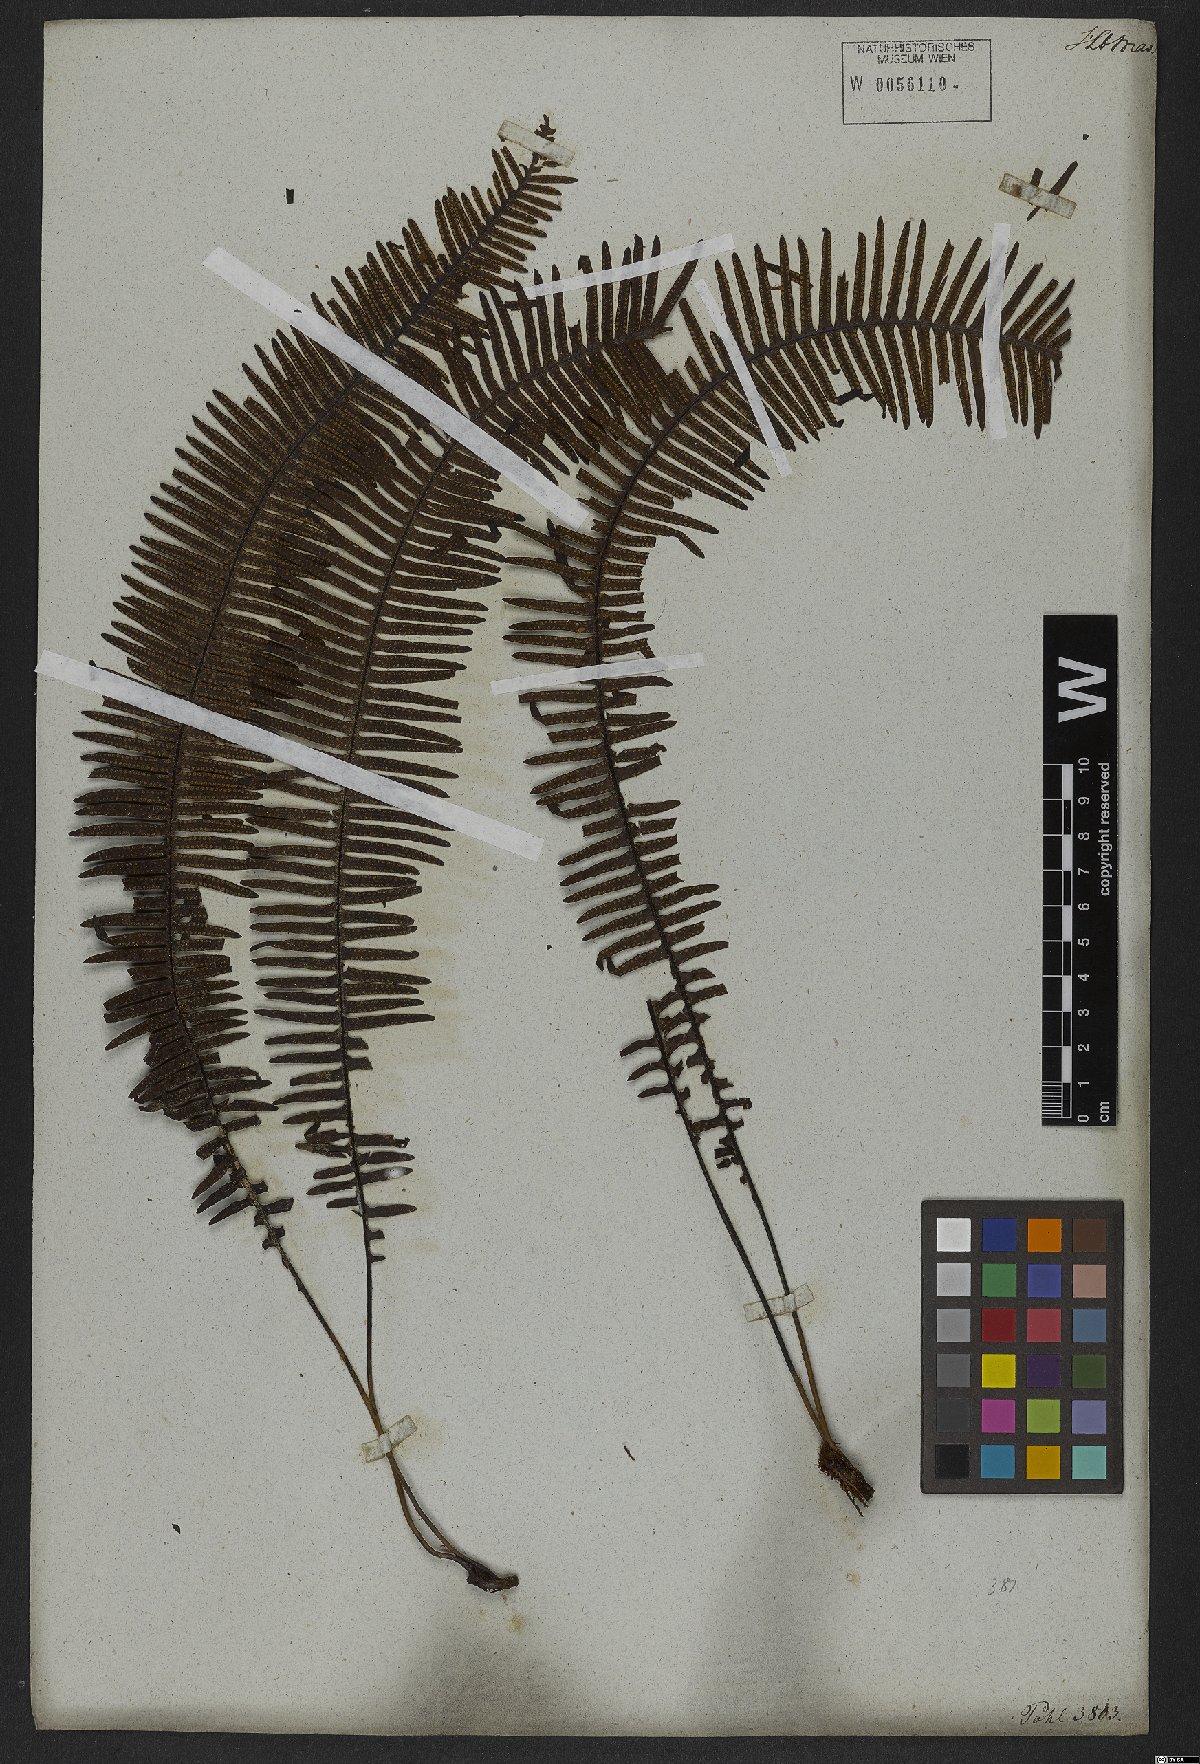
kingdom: Plantae
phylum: Tracheophyta
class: Polypodiopsida
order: Polypodiales
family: Polypodiaceae
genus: Pecluma
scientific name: Pecluma plumula
